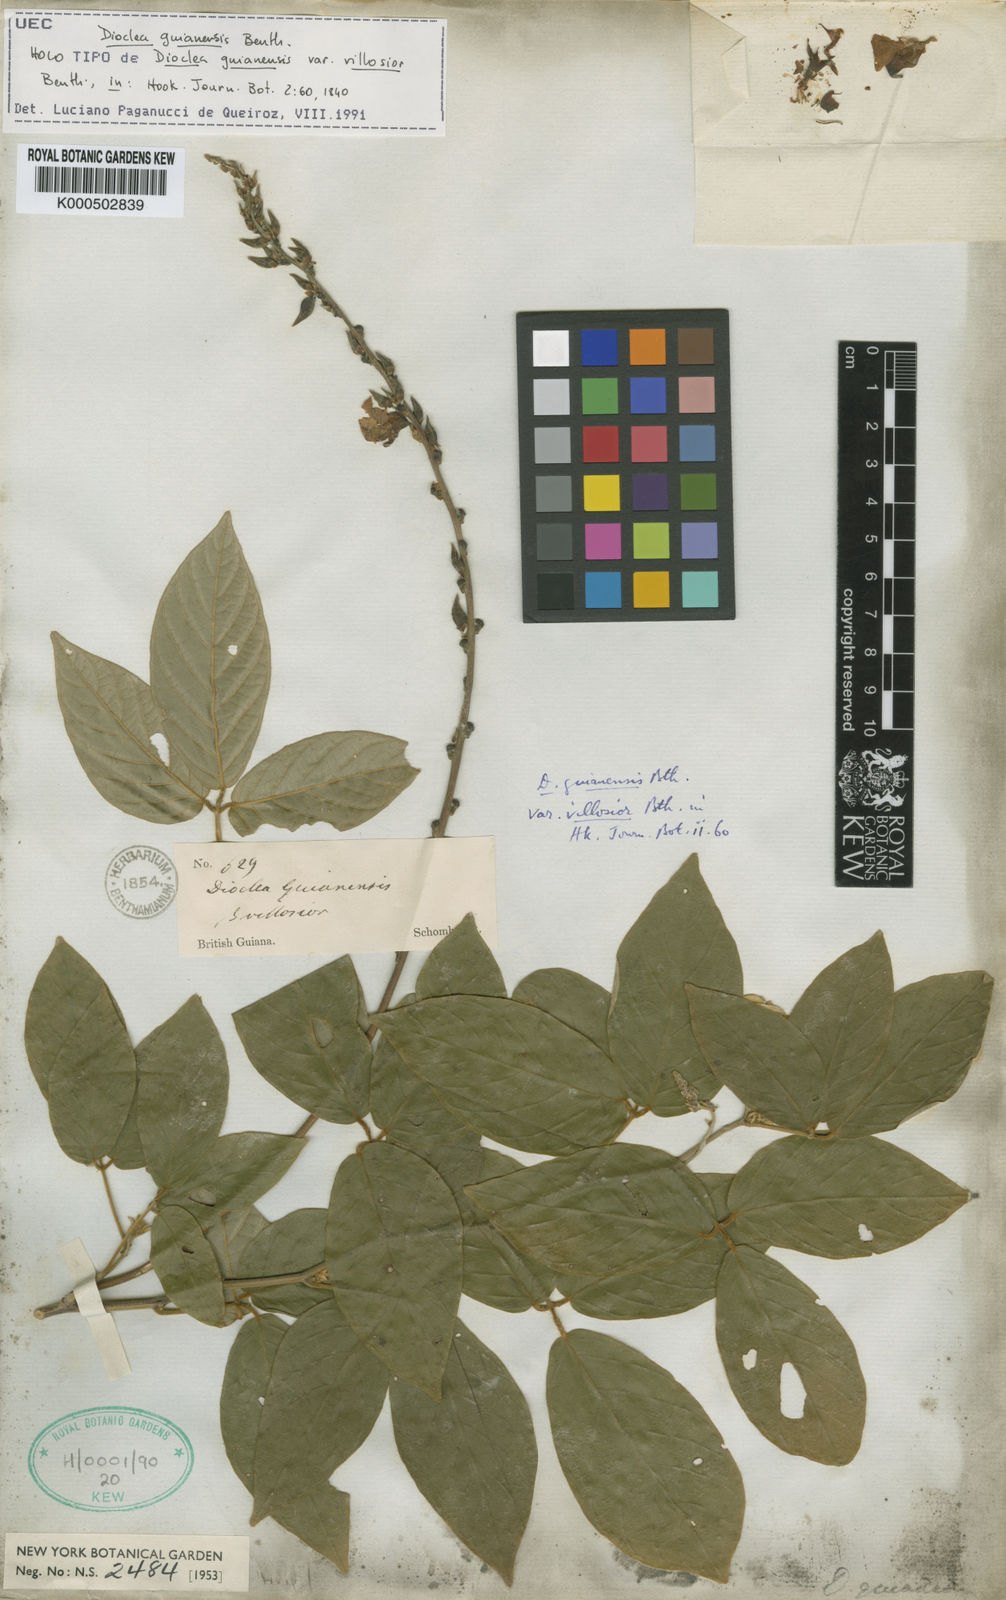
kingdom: Plantae
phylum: Tracheophyta
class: Magnoliopsida
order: Fabales
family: Fabaceae
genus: Dioclea
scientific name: Dioclea guianensis
